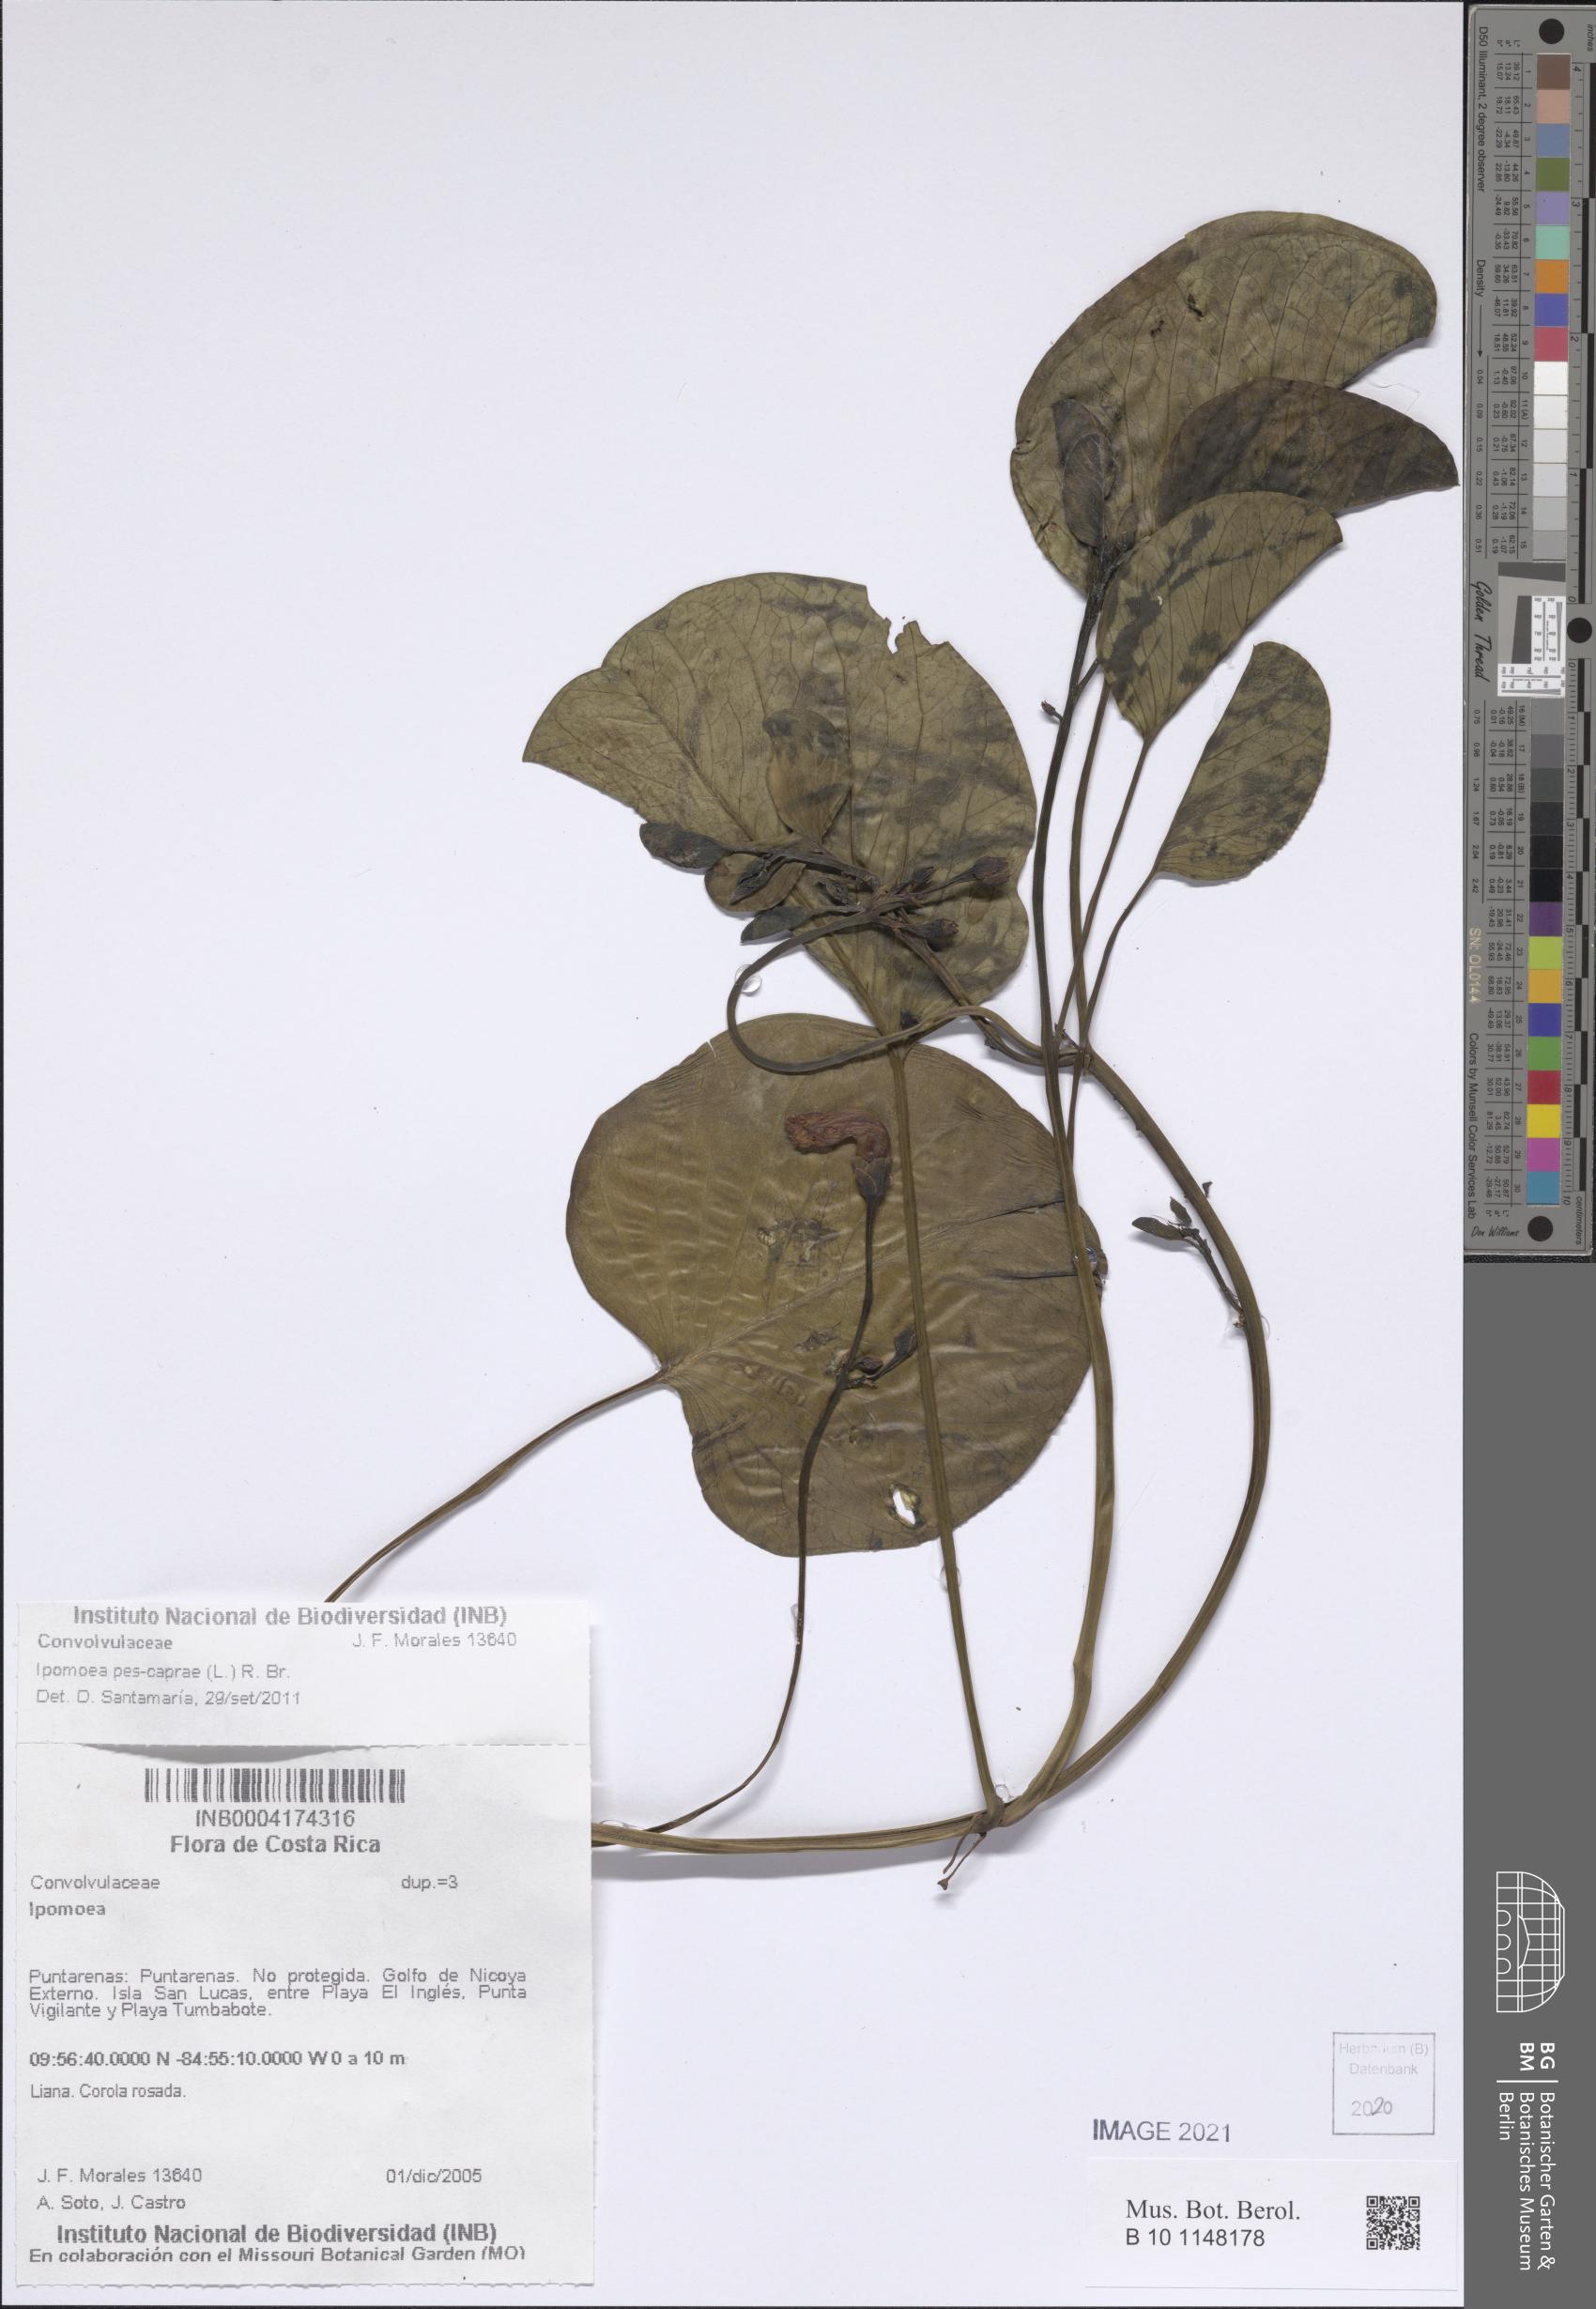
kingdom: Plantae
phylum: Tracheophyta
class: Magnoliopsida
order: Solanales
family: Convolvulaceae
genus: Ipomoea
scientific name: Ipomoea pes-caprae
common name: Beach morning glory
